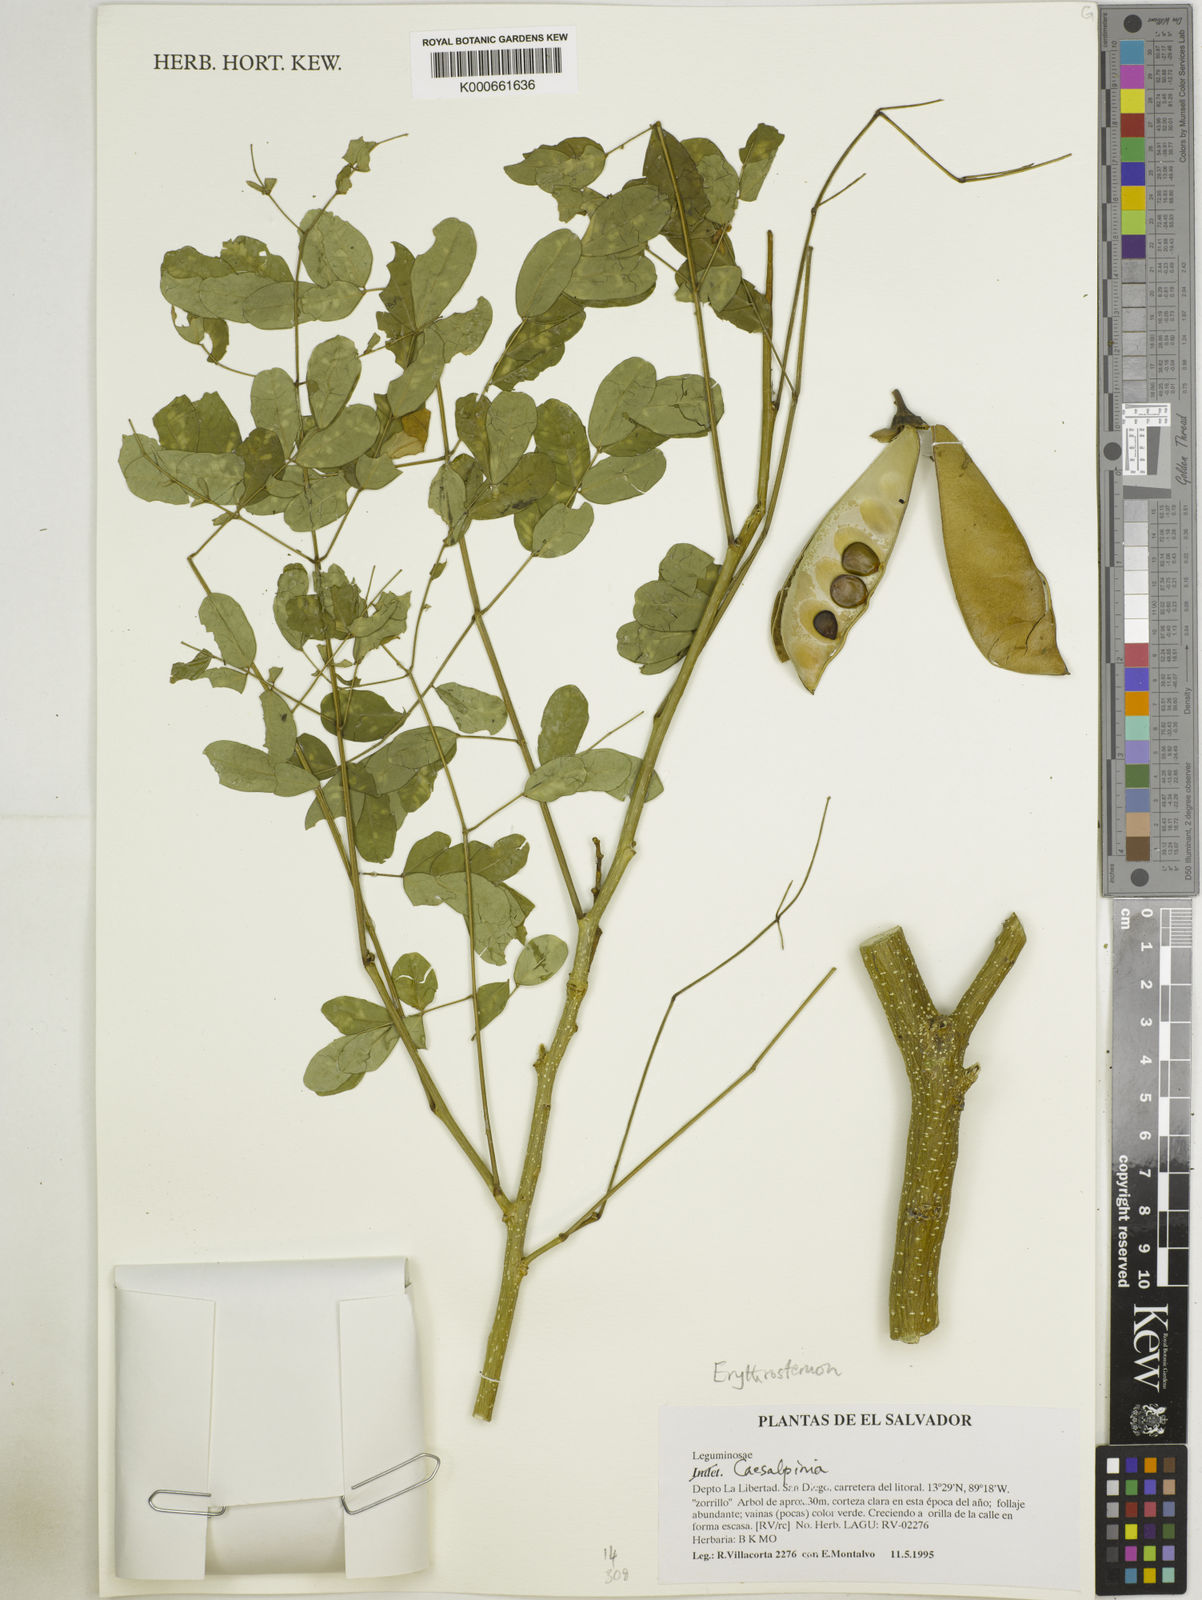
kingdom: Plantae
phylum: Tracheophyta
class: Magnoliopsida
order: Fabales
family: Fabaceae
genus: Caesalpinia
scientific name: Caesalpinia
